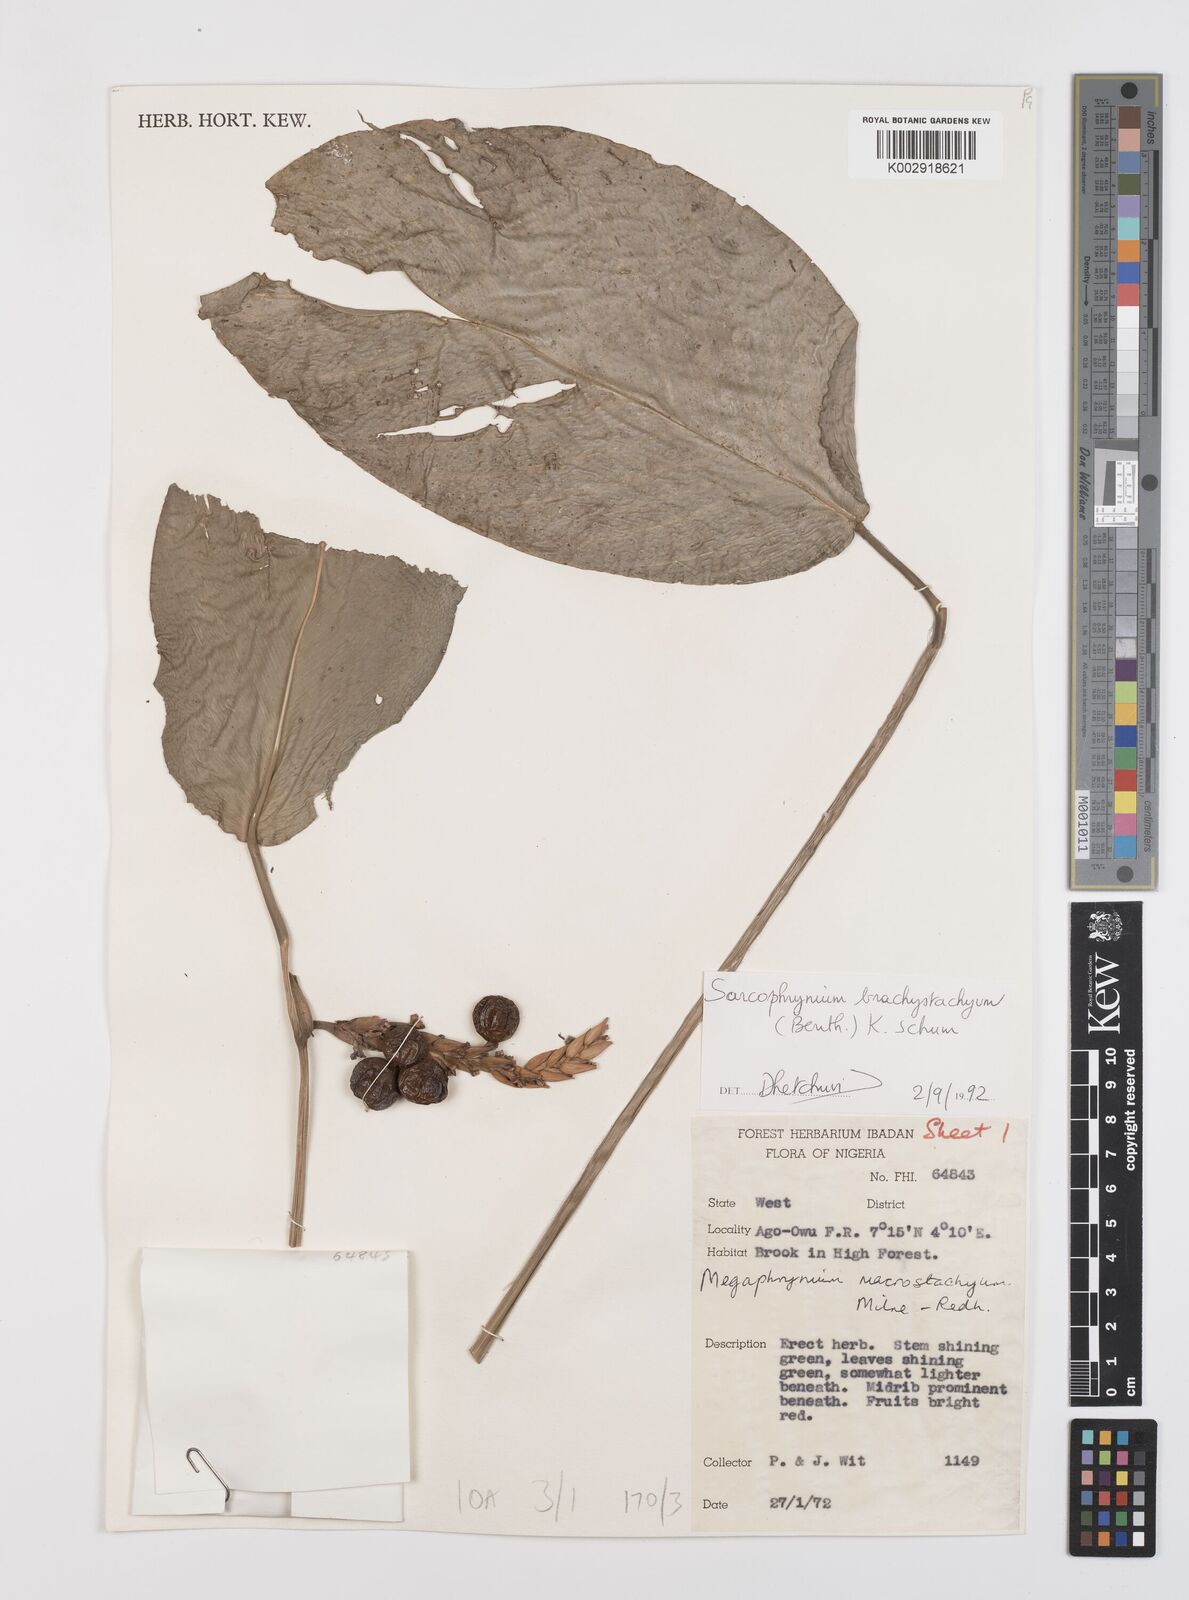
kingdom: Plantae
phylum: Tracheophyta
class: Liliopsida
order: Zingiberales
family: Marantaceae
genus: Sarcophrynium
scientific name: Sarcophrynium brachystachyum
